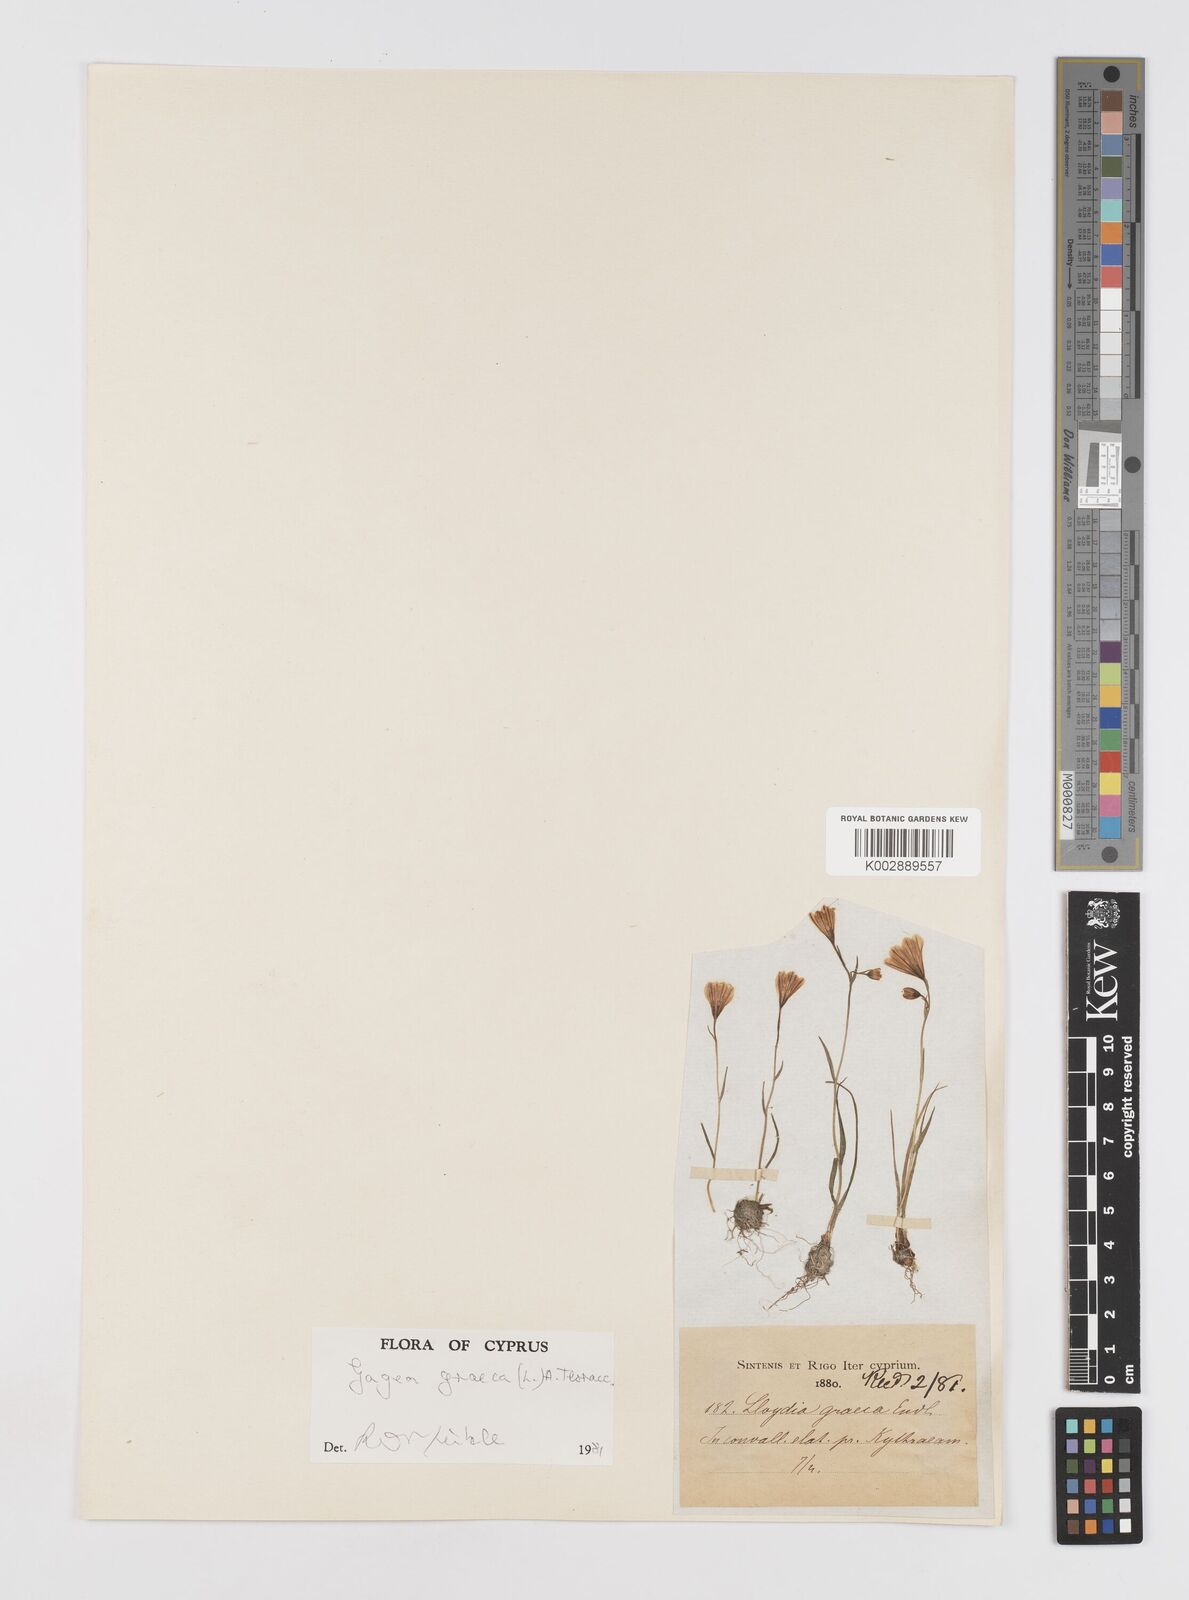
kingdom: Plantae
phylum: Tracheophyta
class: Liliopsida
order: Liliales
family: Liliaceae
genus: Gagea
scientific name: Gagea graeca
